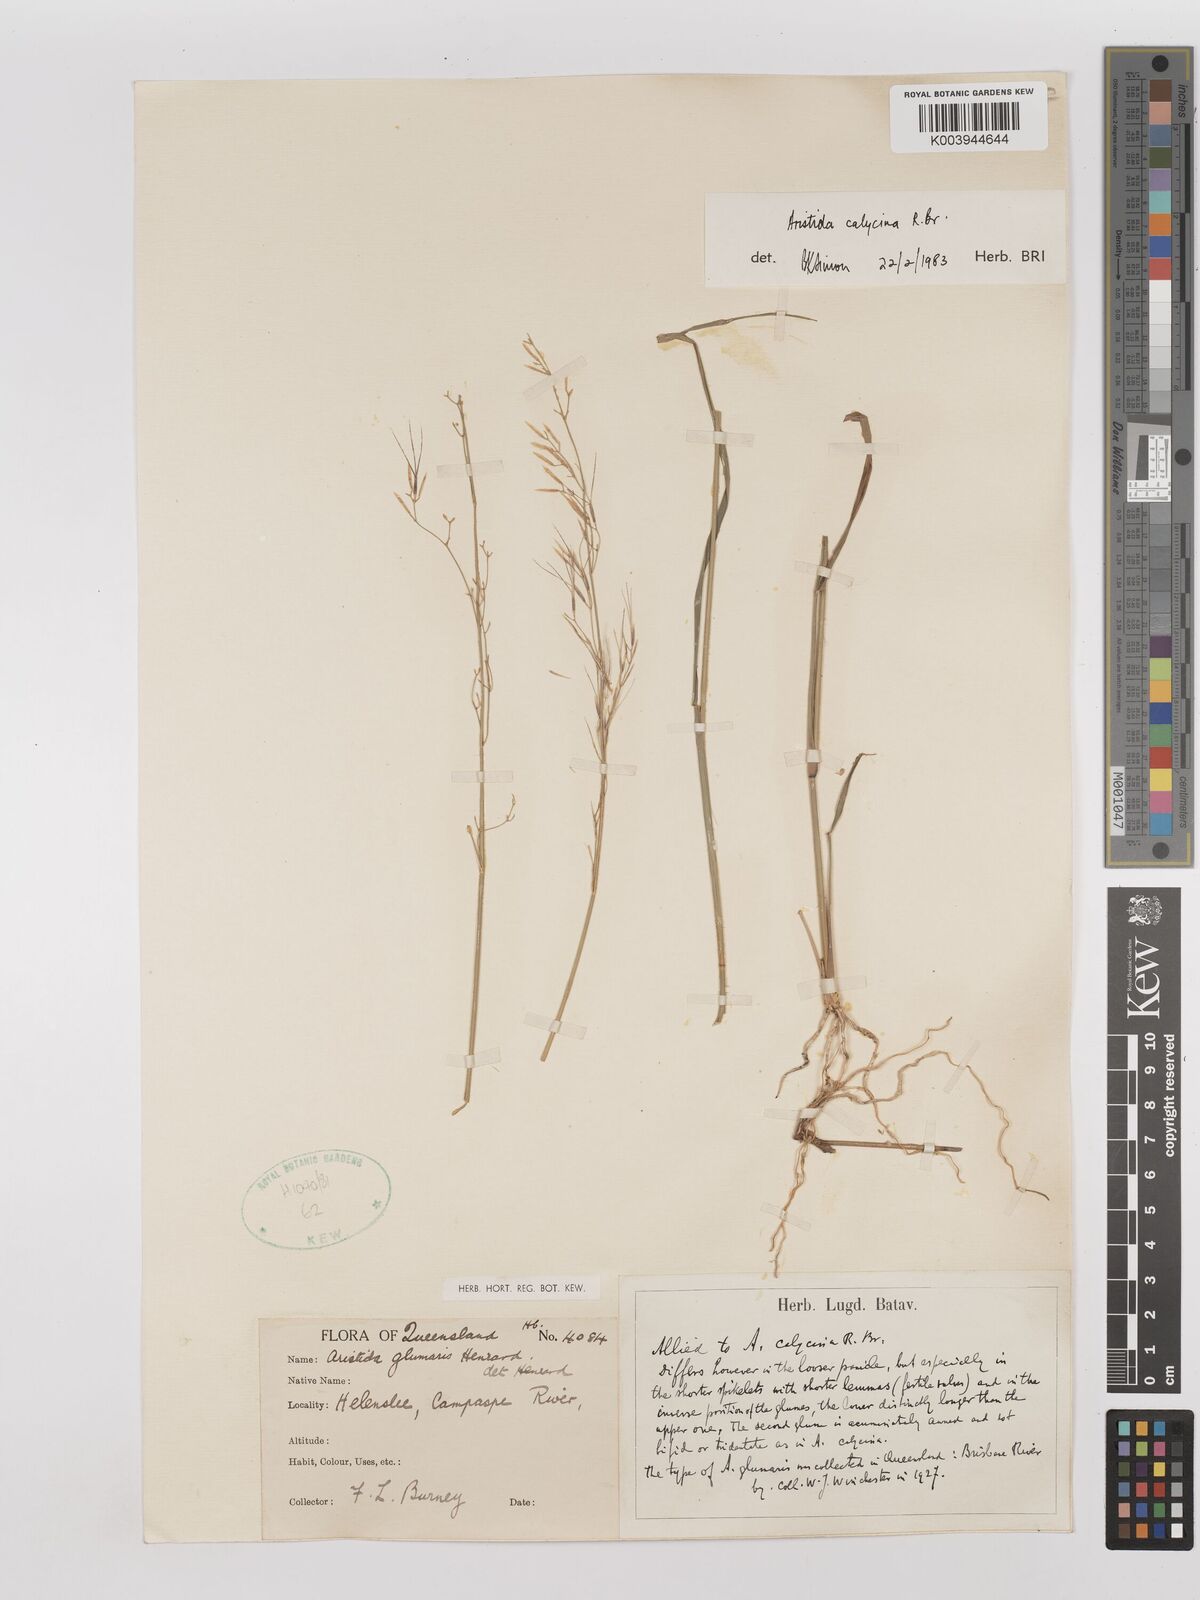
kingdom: Plantae
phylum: Tracheophyta
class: Liliopsida
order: Poales
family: Poaceae
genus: Aristida
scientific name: Aristida calycina
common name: Dark wire grass
